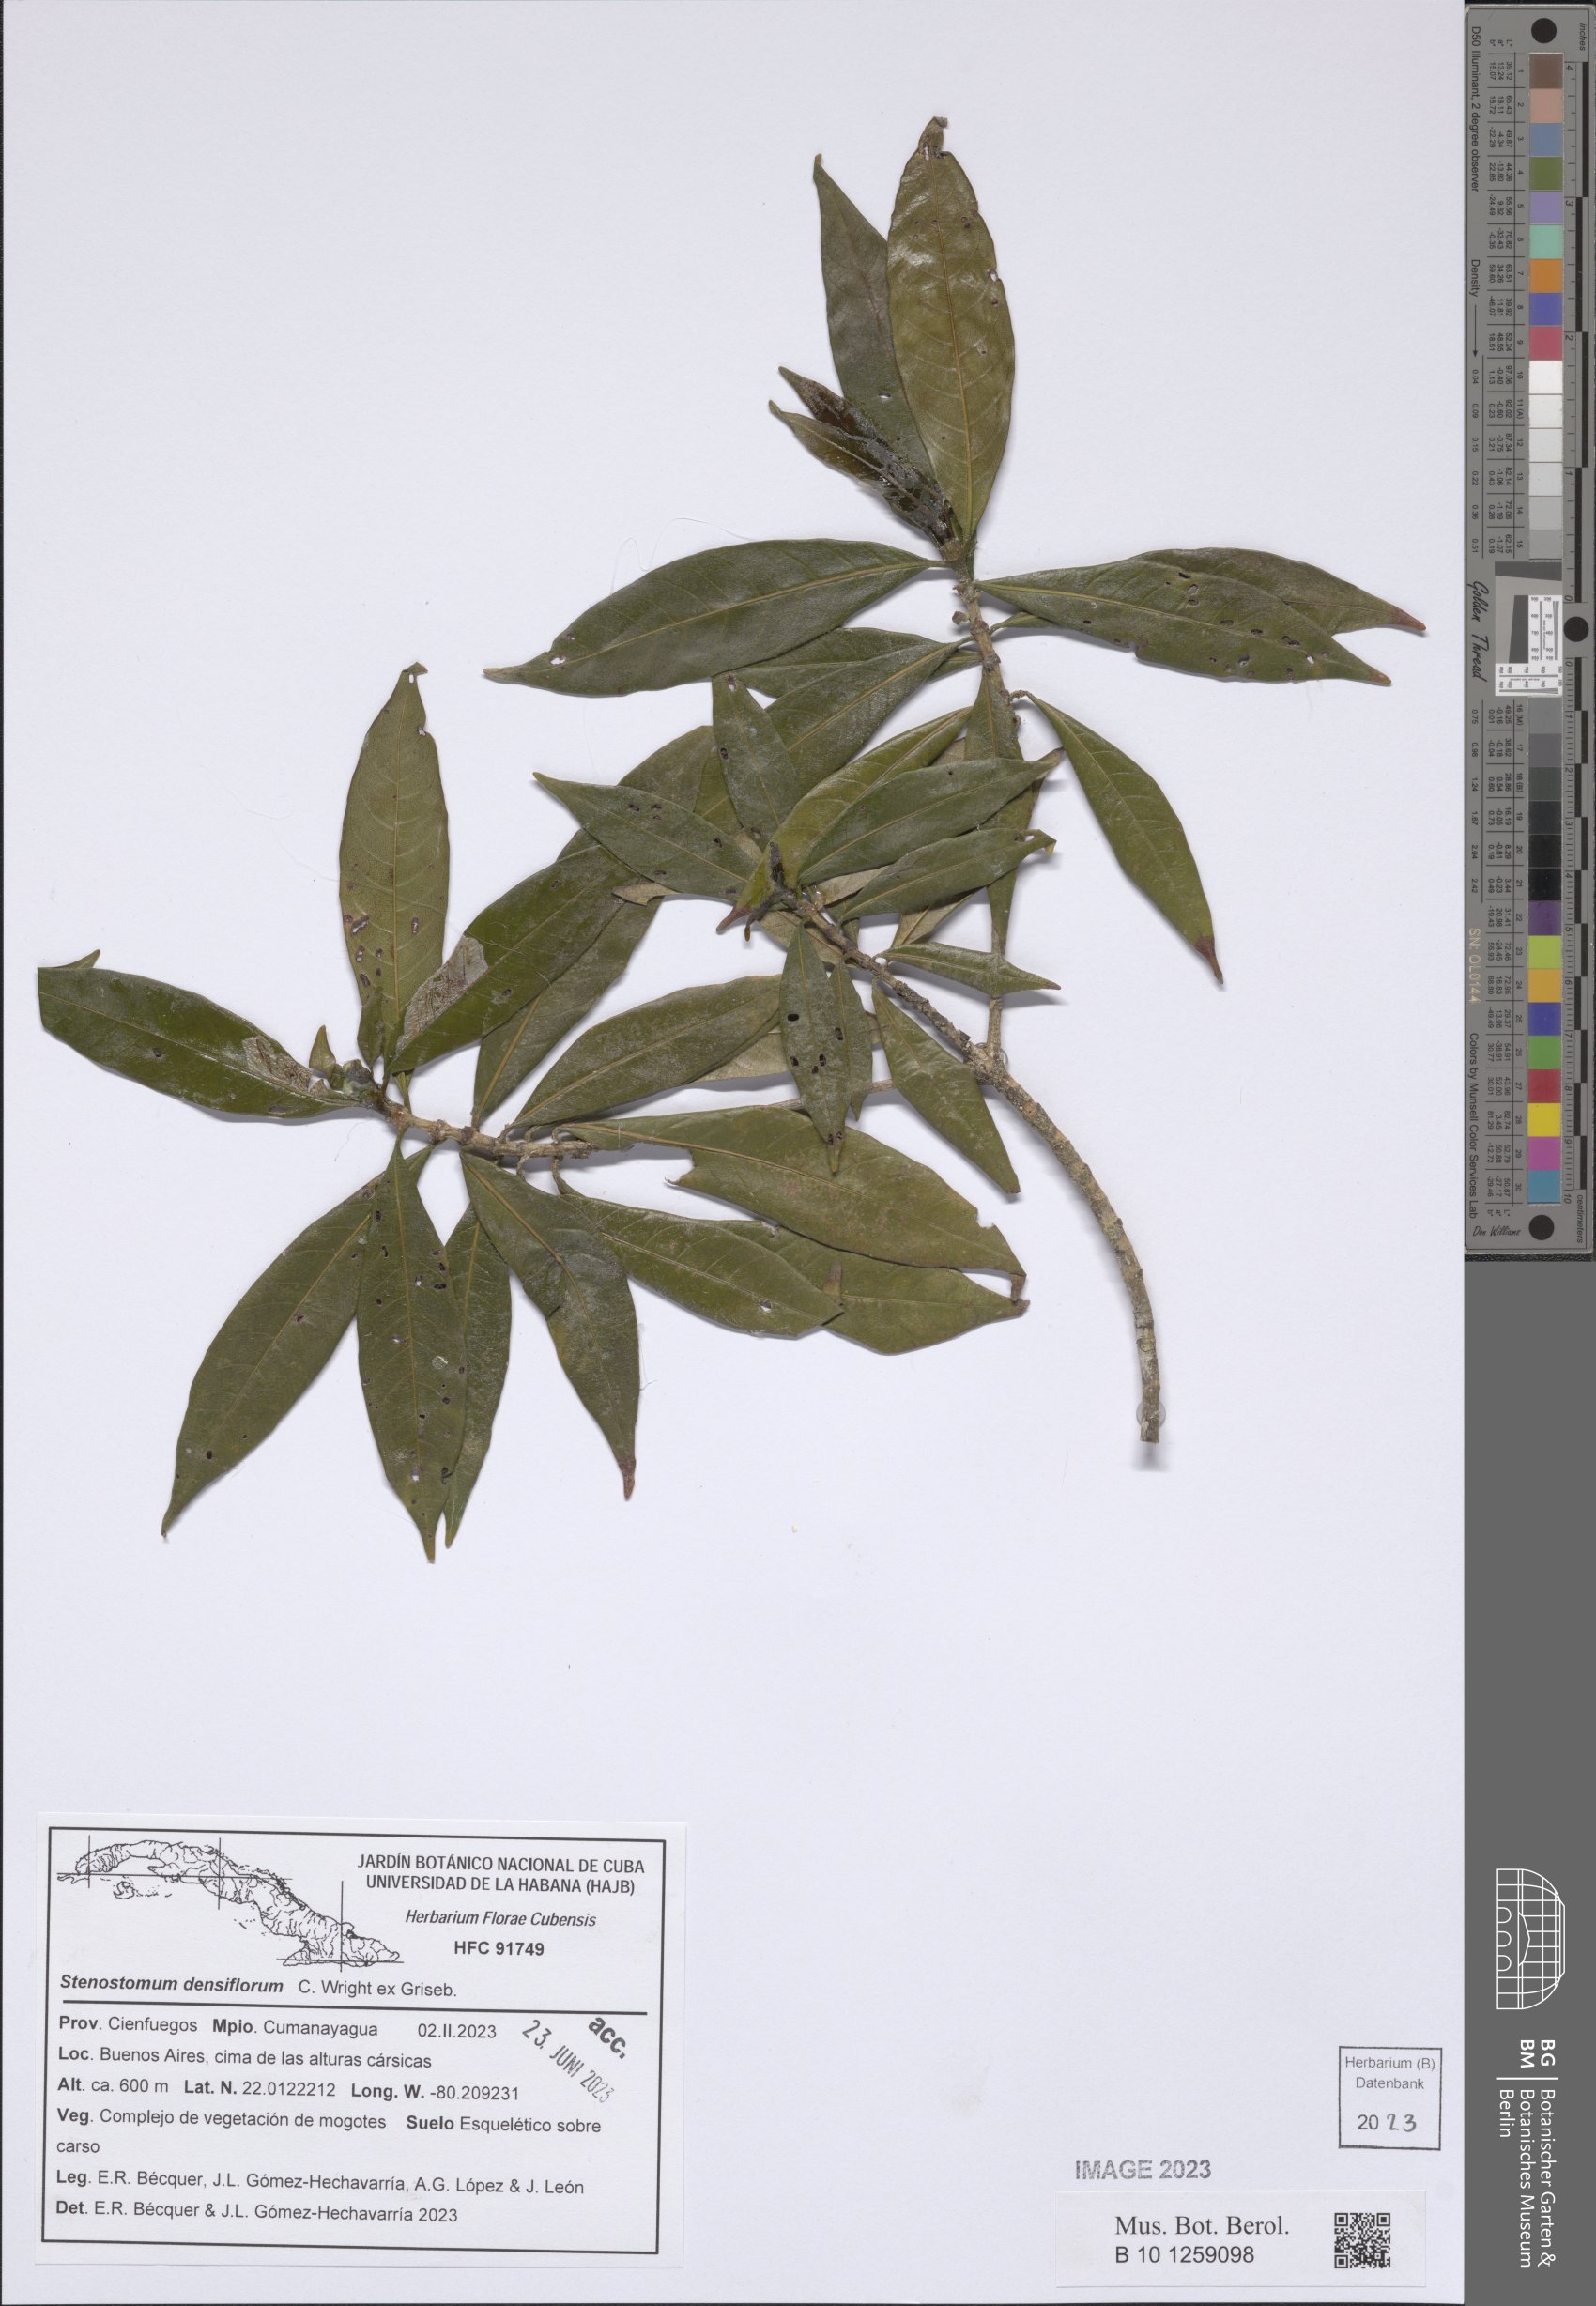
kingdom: Plantae
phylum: Tracheophyta
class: Magnoliopsida
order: Gentianales
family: Rubiaceae
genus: Stenostomum
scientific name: Stenostomum densiflorum
